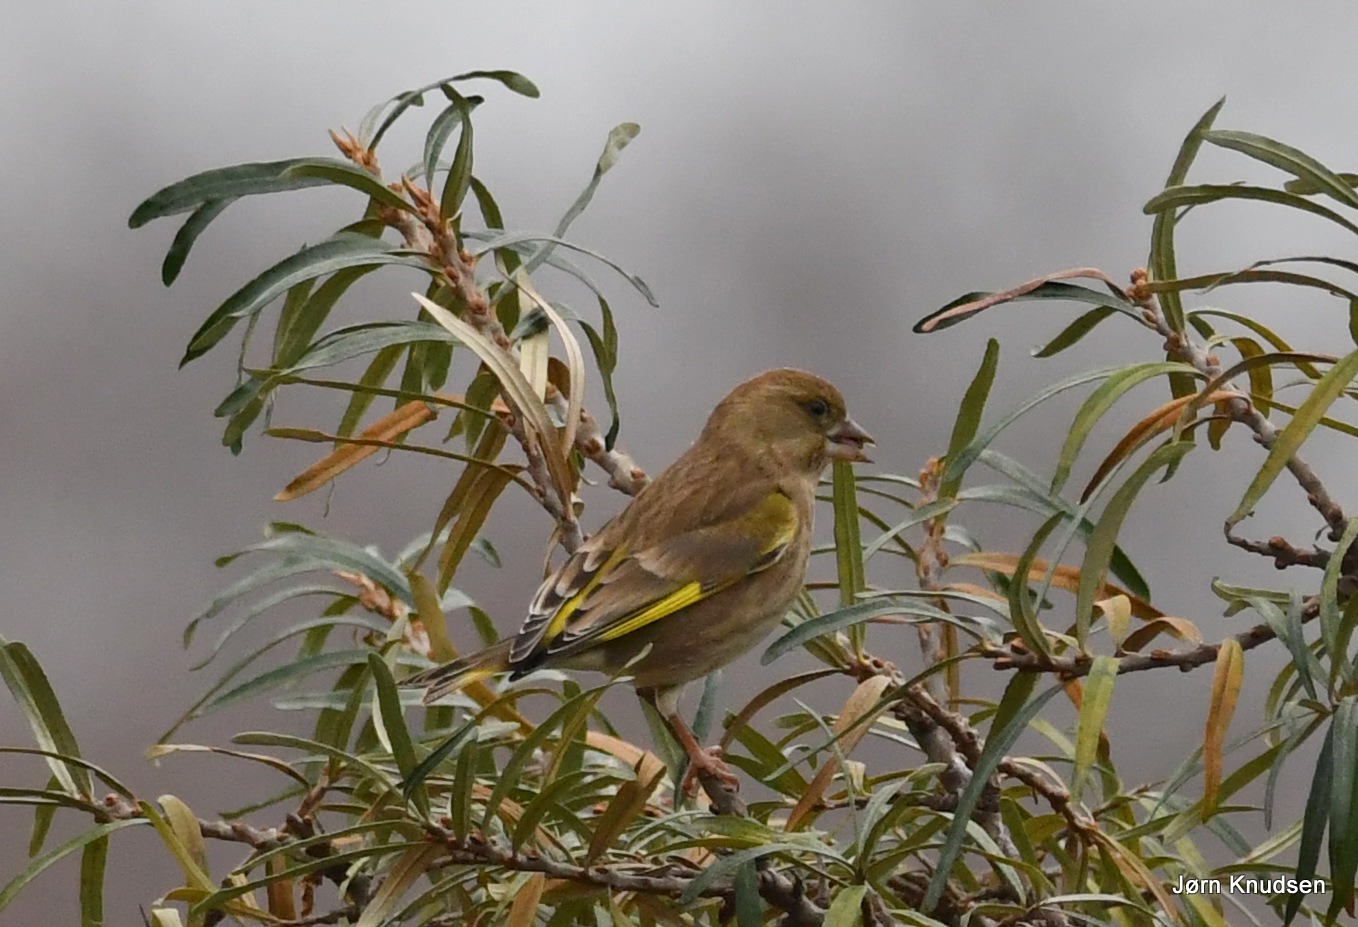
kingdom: Plantae
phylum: Tracheophyta
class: Liliopsida
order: Poales
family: Poaceae
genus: Chloris
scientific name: Chloris chloris
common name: Grønirisk
